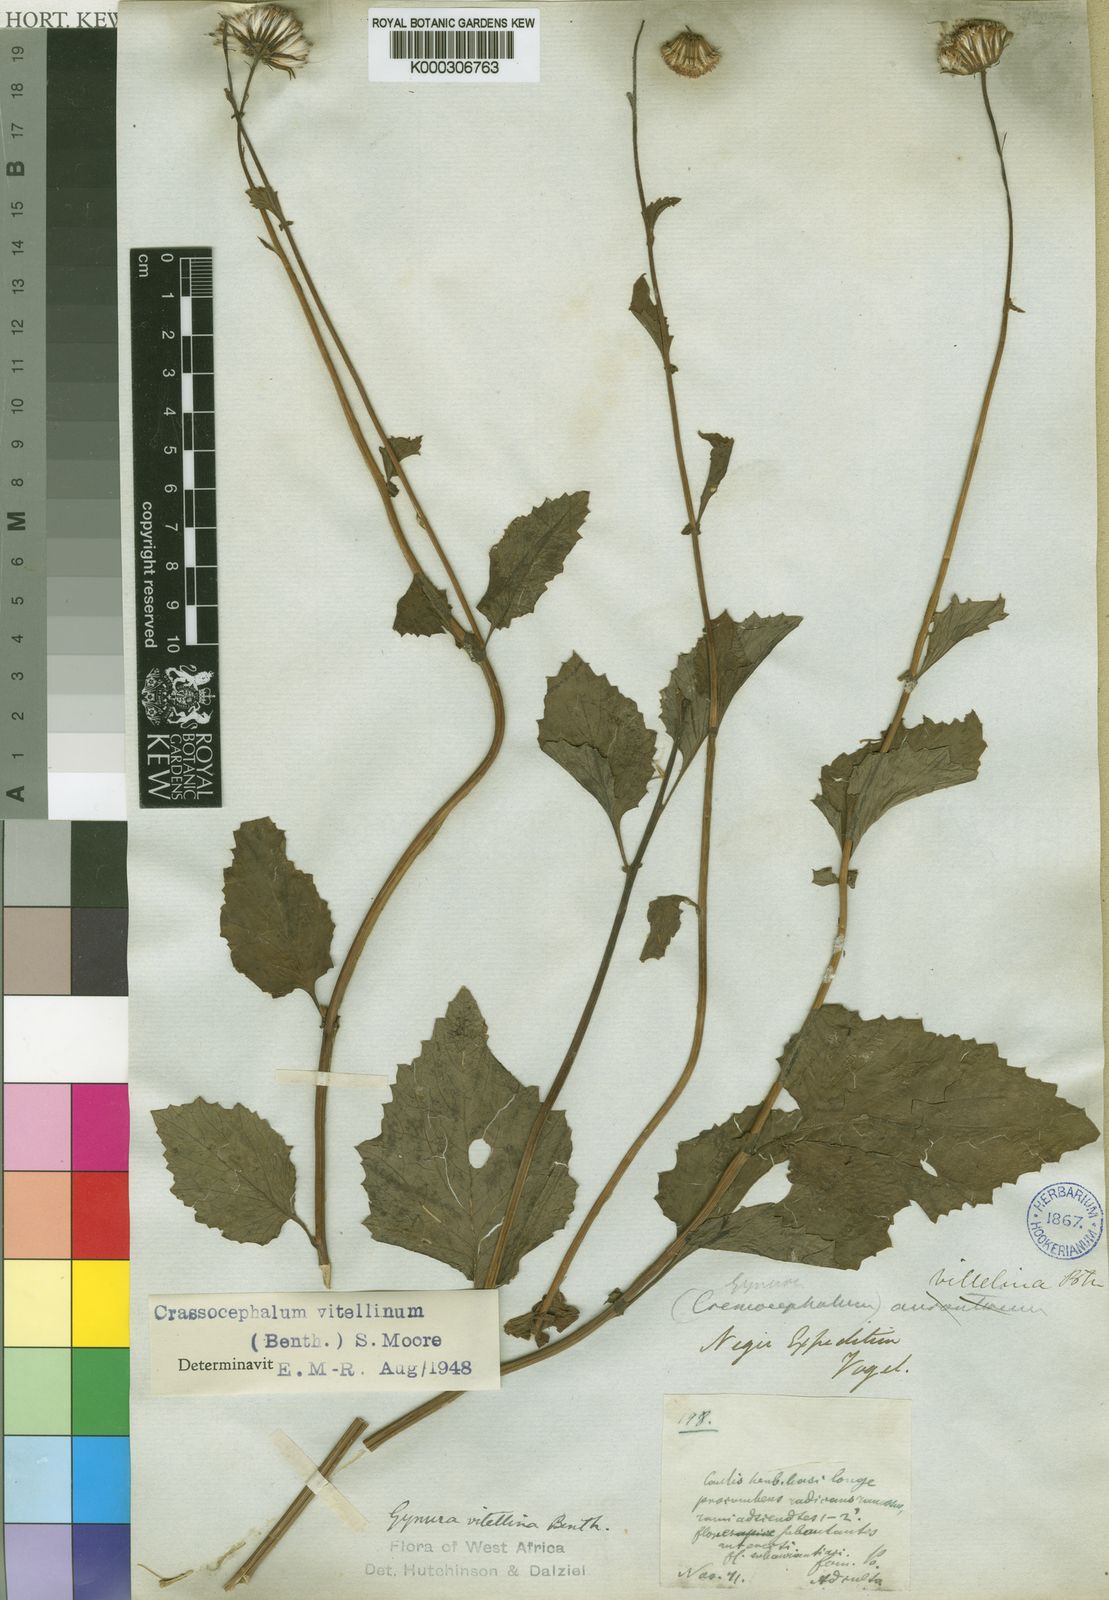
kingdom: Plantae
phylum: Tracheophyta
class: Magnoliopsida
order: Asterales
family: Asteraceae
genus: Crassocephalum
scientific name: Crassocephalum vitellinum
